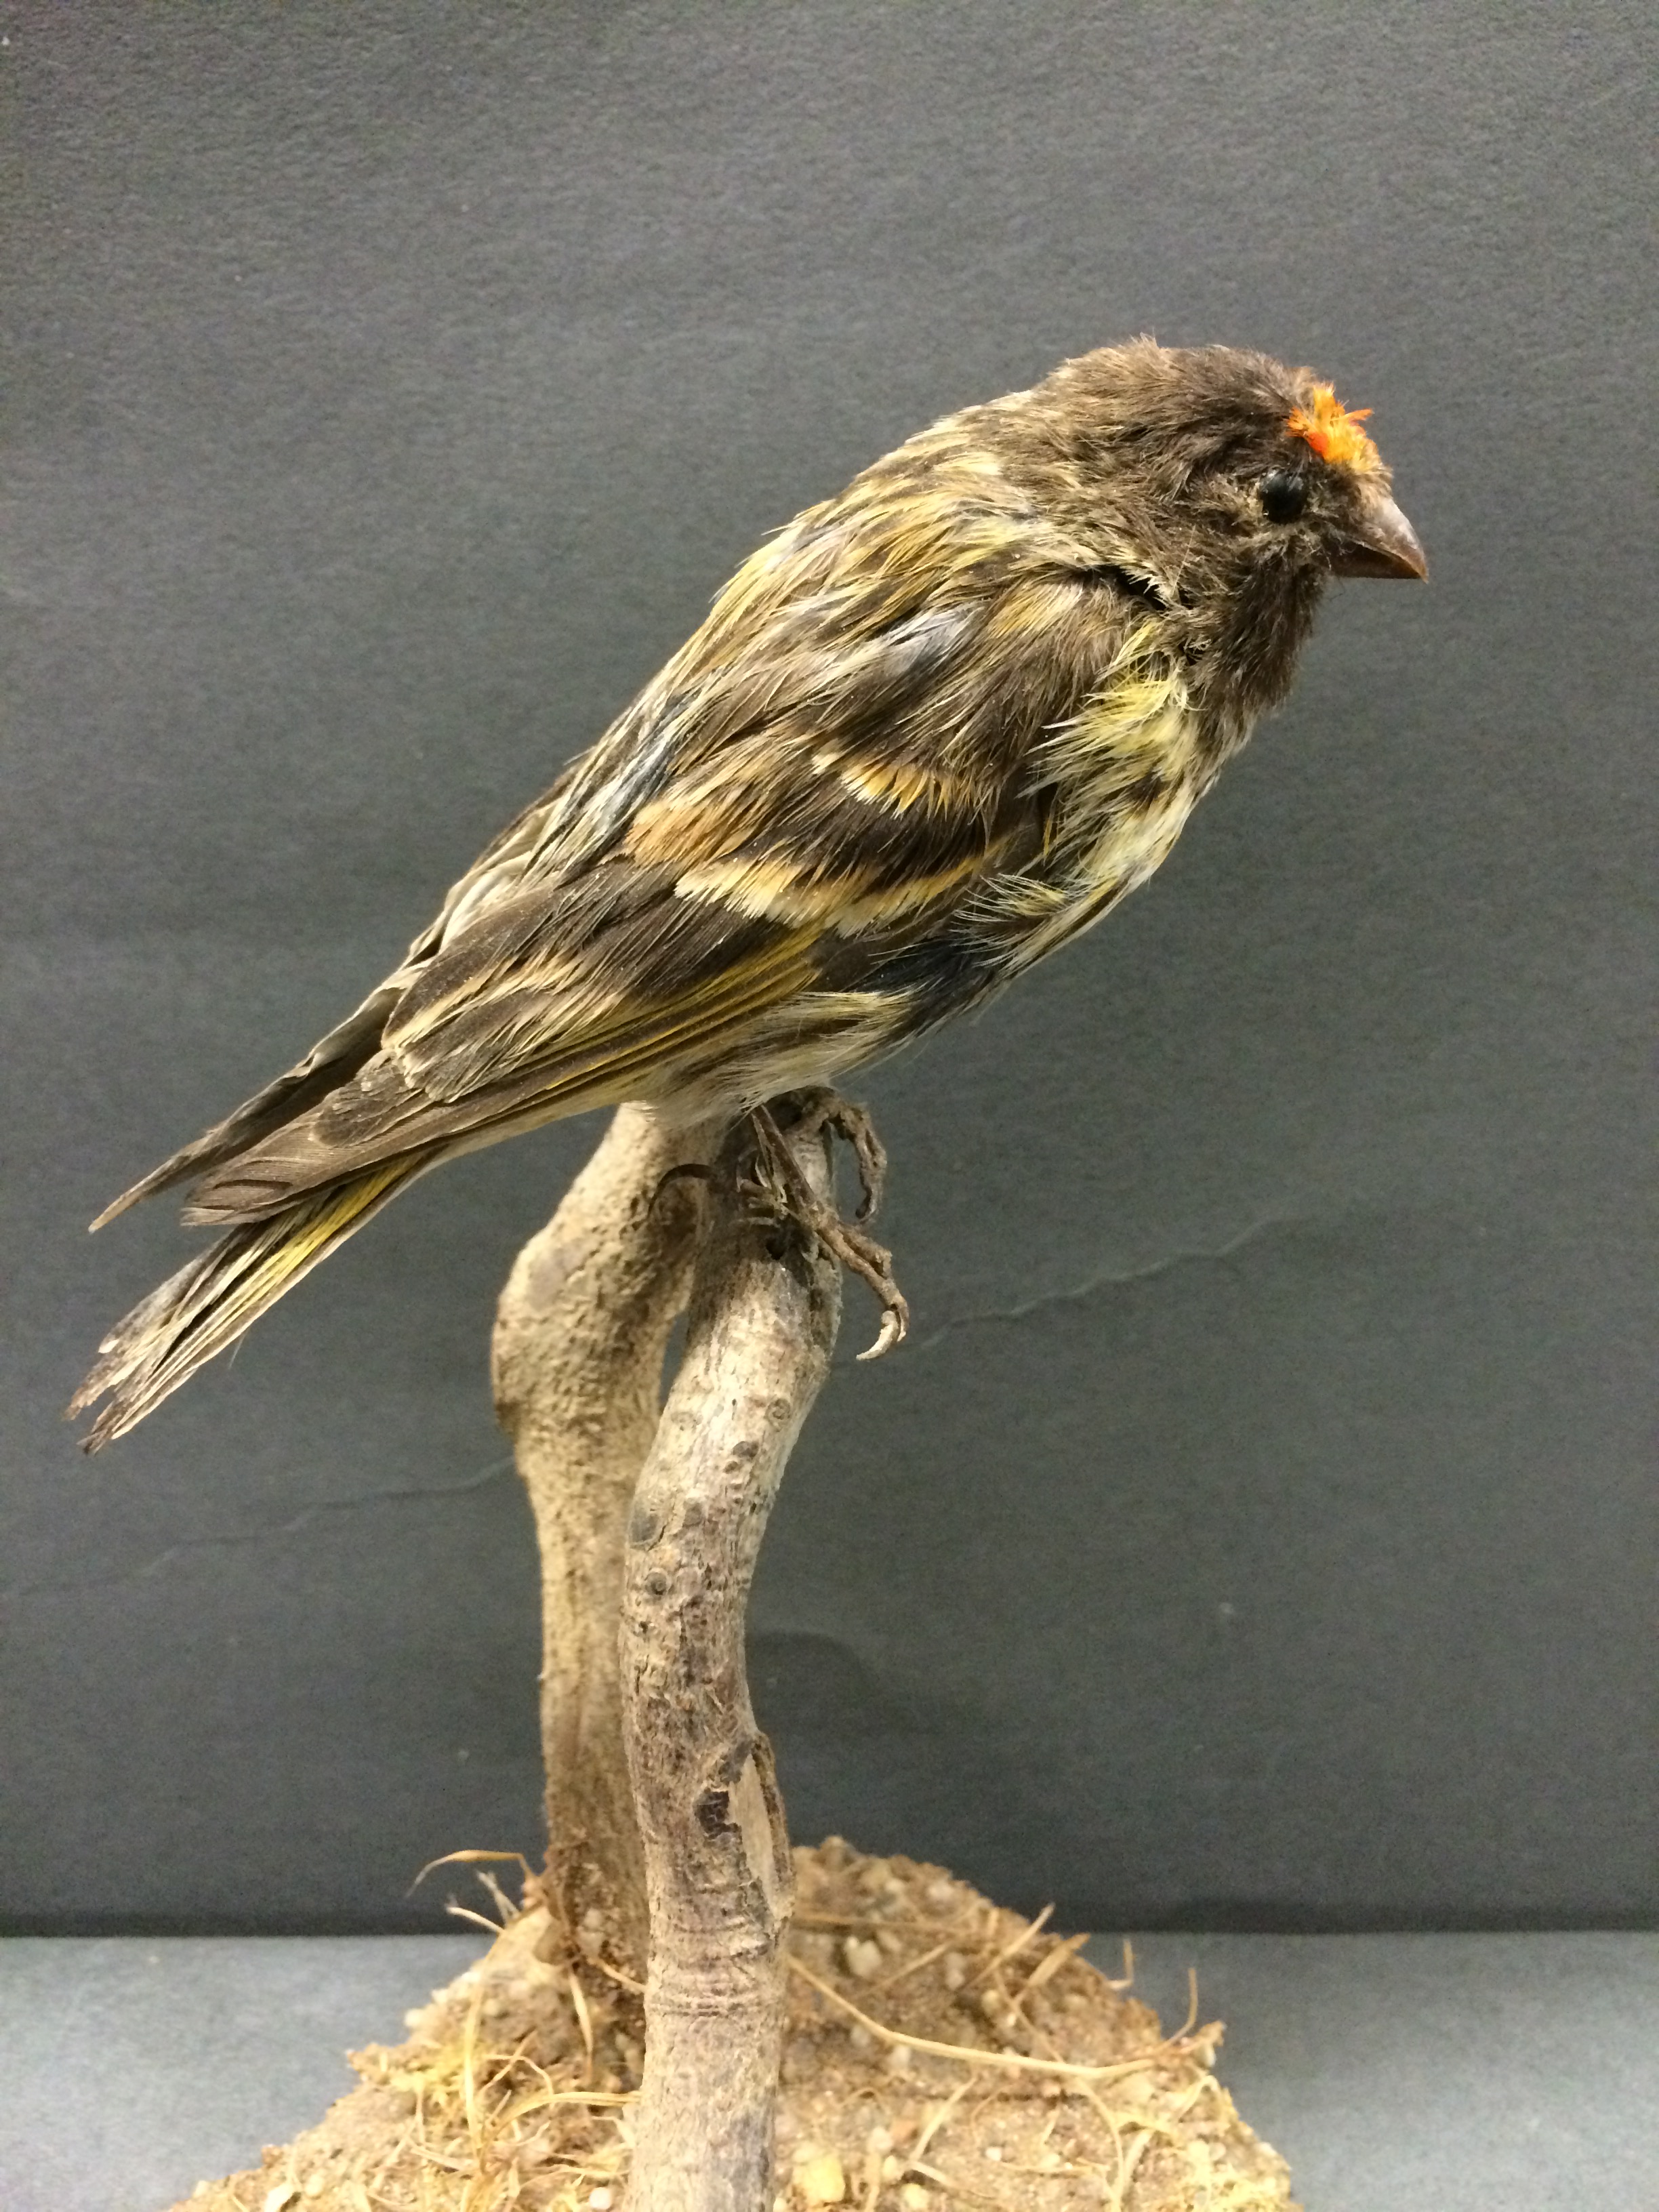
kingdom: Animalia
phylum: Chordata
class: Aves
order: Passeriformes
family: Fringillidae
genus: Serinus
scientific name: Serinus pusillus
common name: Red-fronted serin
